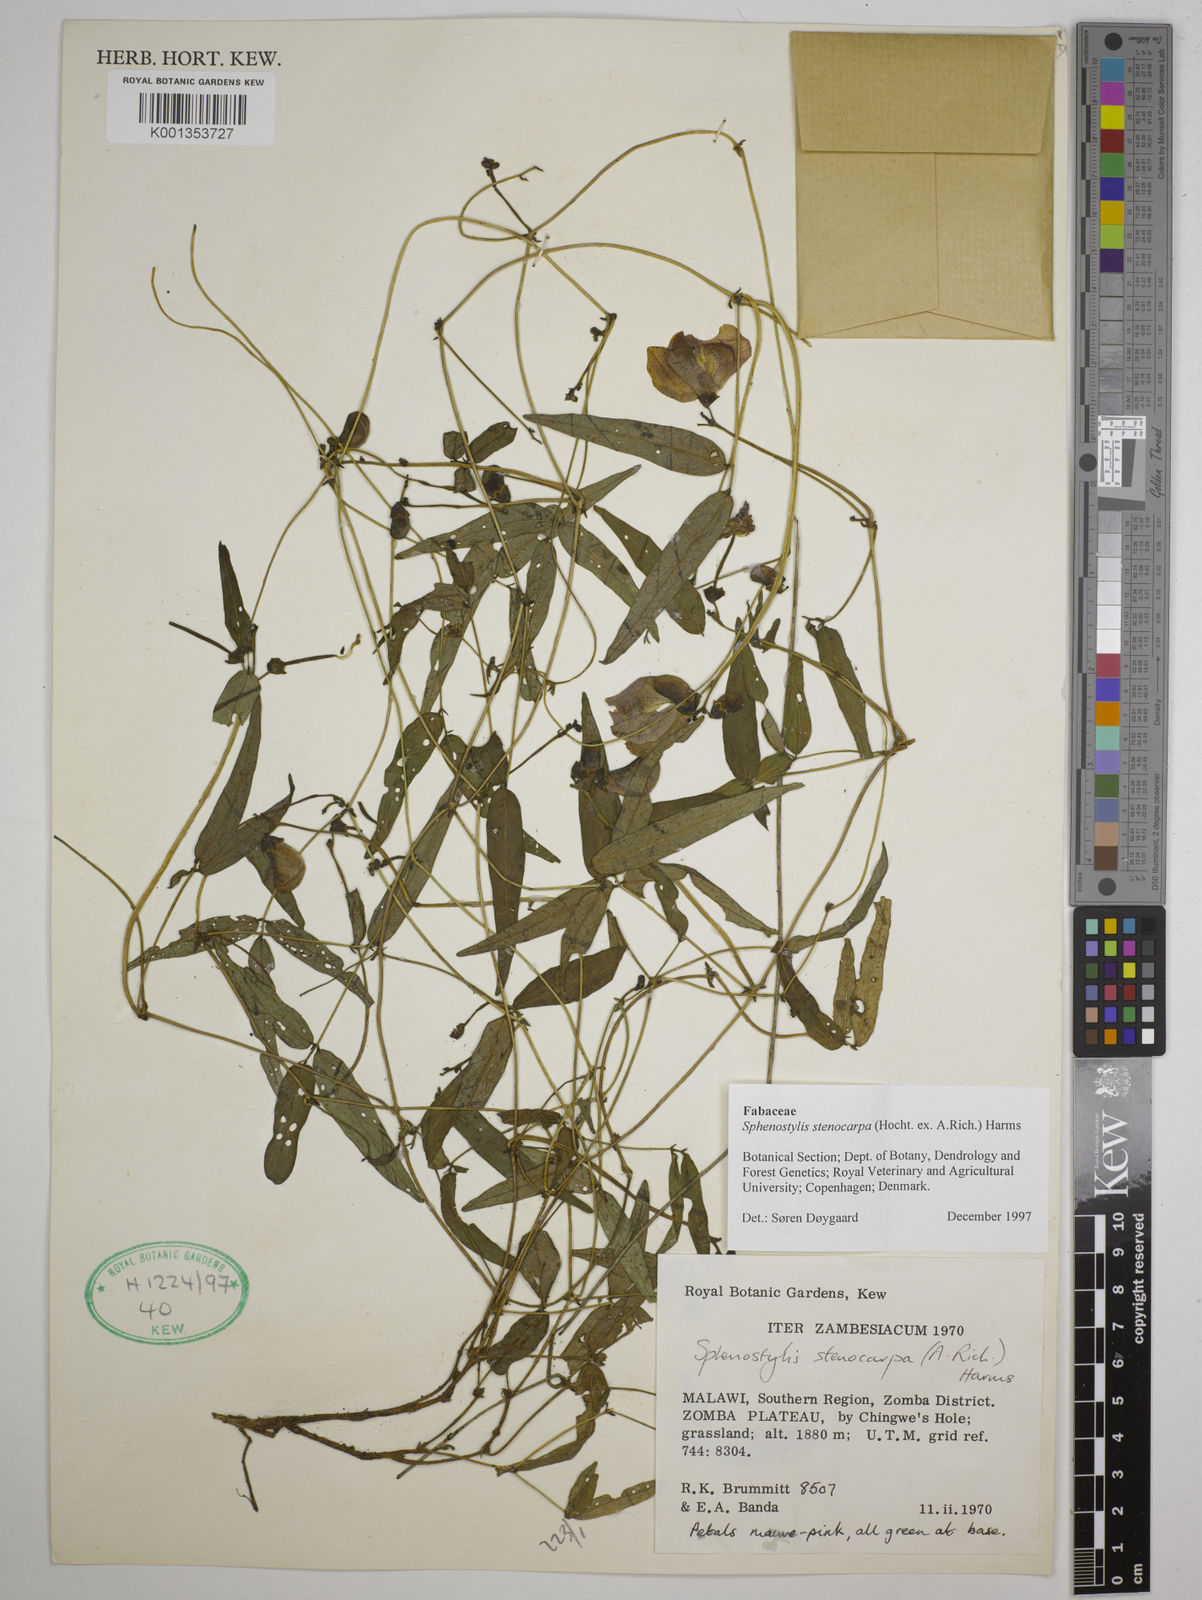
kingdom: Plantae
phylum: Tracheophyta
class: Magnoliopsida
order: Fabales
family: Fabaceae
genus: Sphenostylis
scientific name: Sphenostylis stenocarpa
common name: Yam-pea
